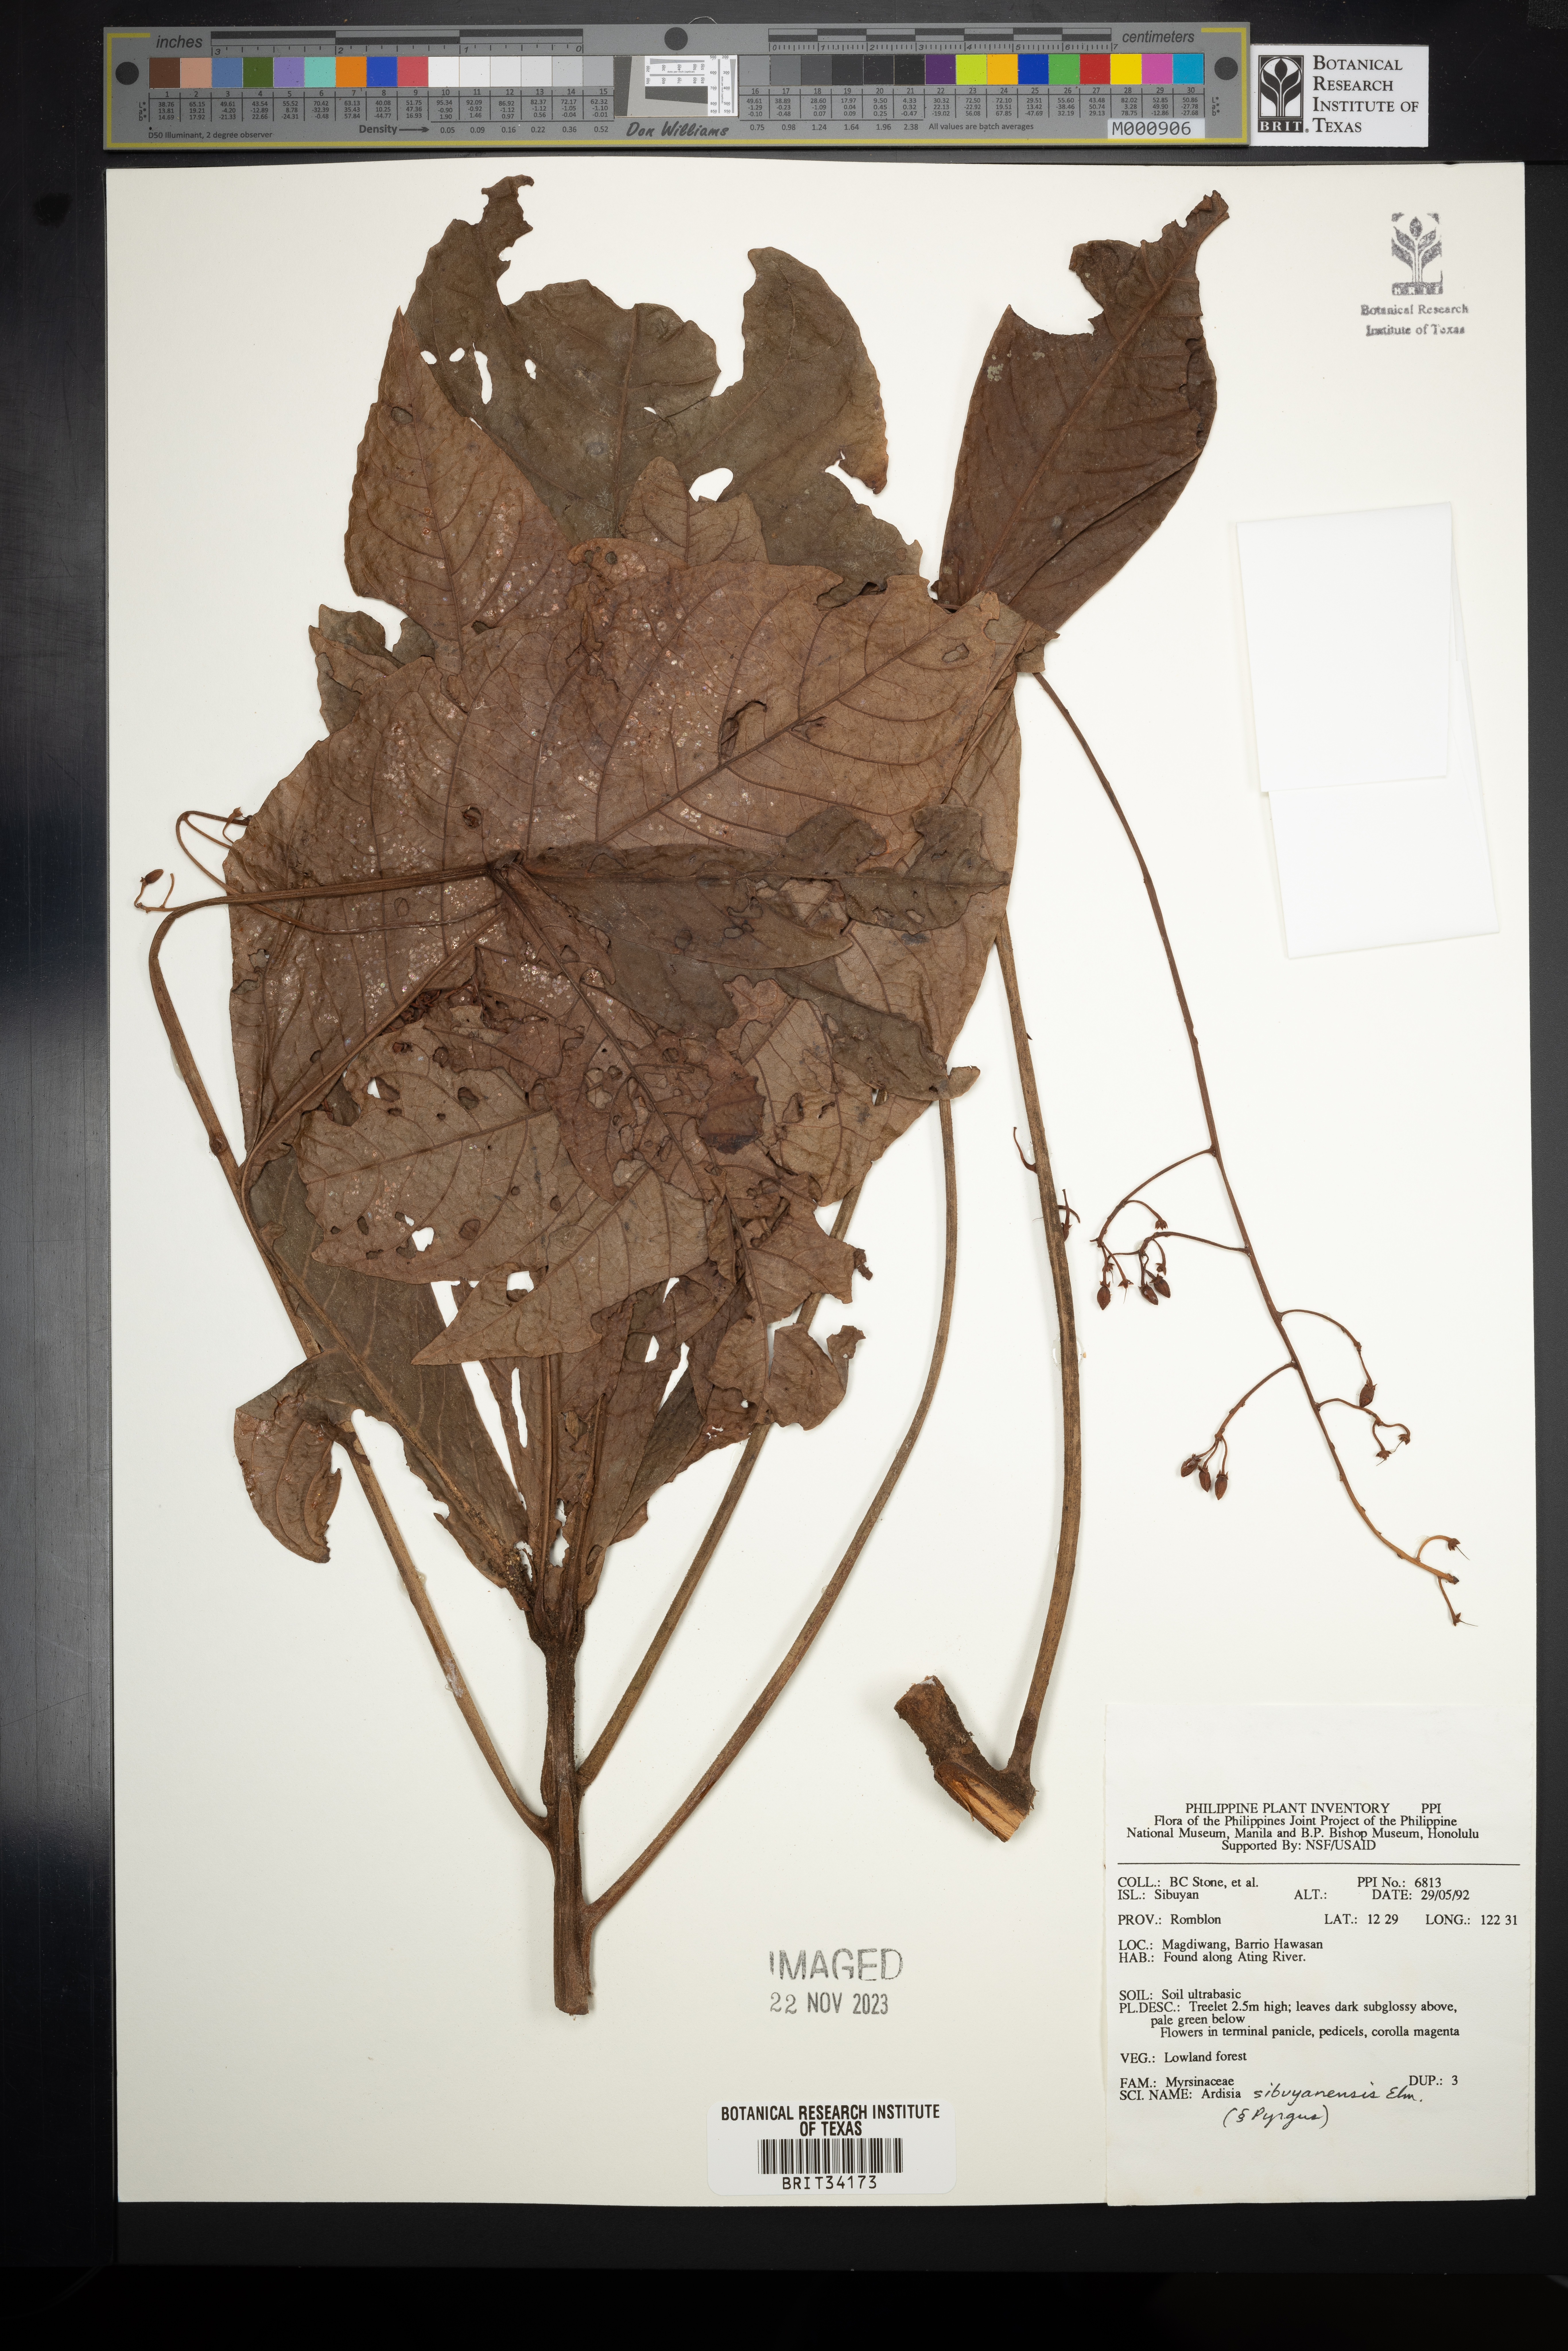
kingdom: Plantae
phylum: Tracheophyta
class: Magnoliopsida
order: Ericales
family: Primulaceae
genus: Ardisia
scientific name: Ardisia brevipetiolata
